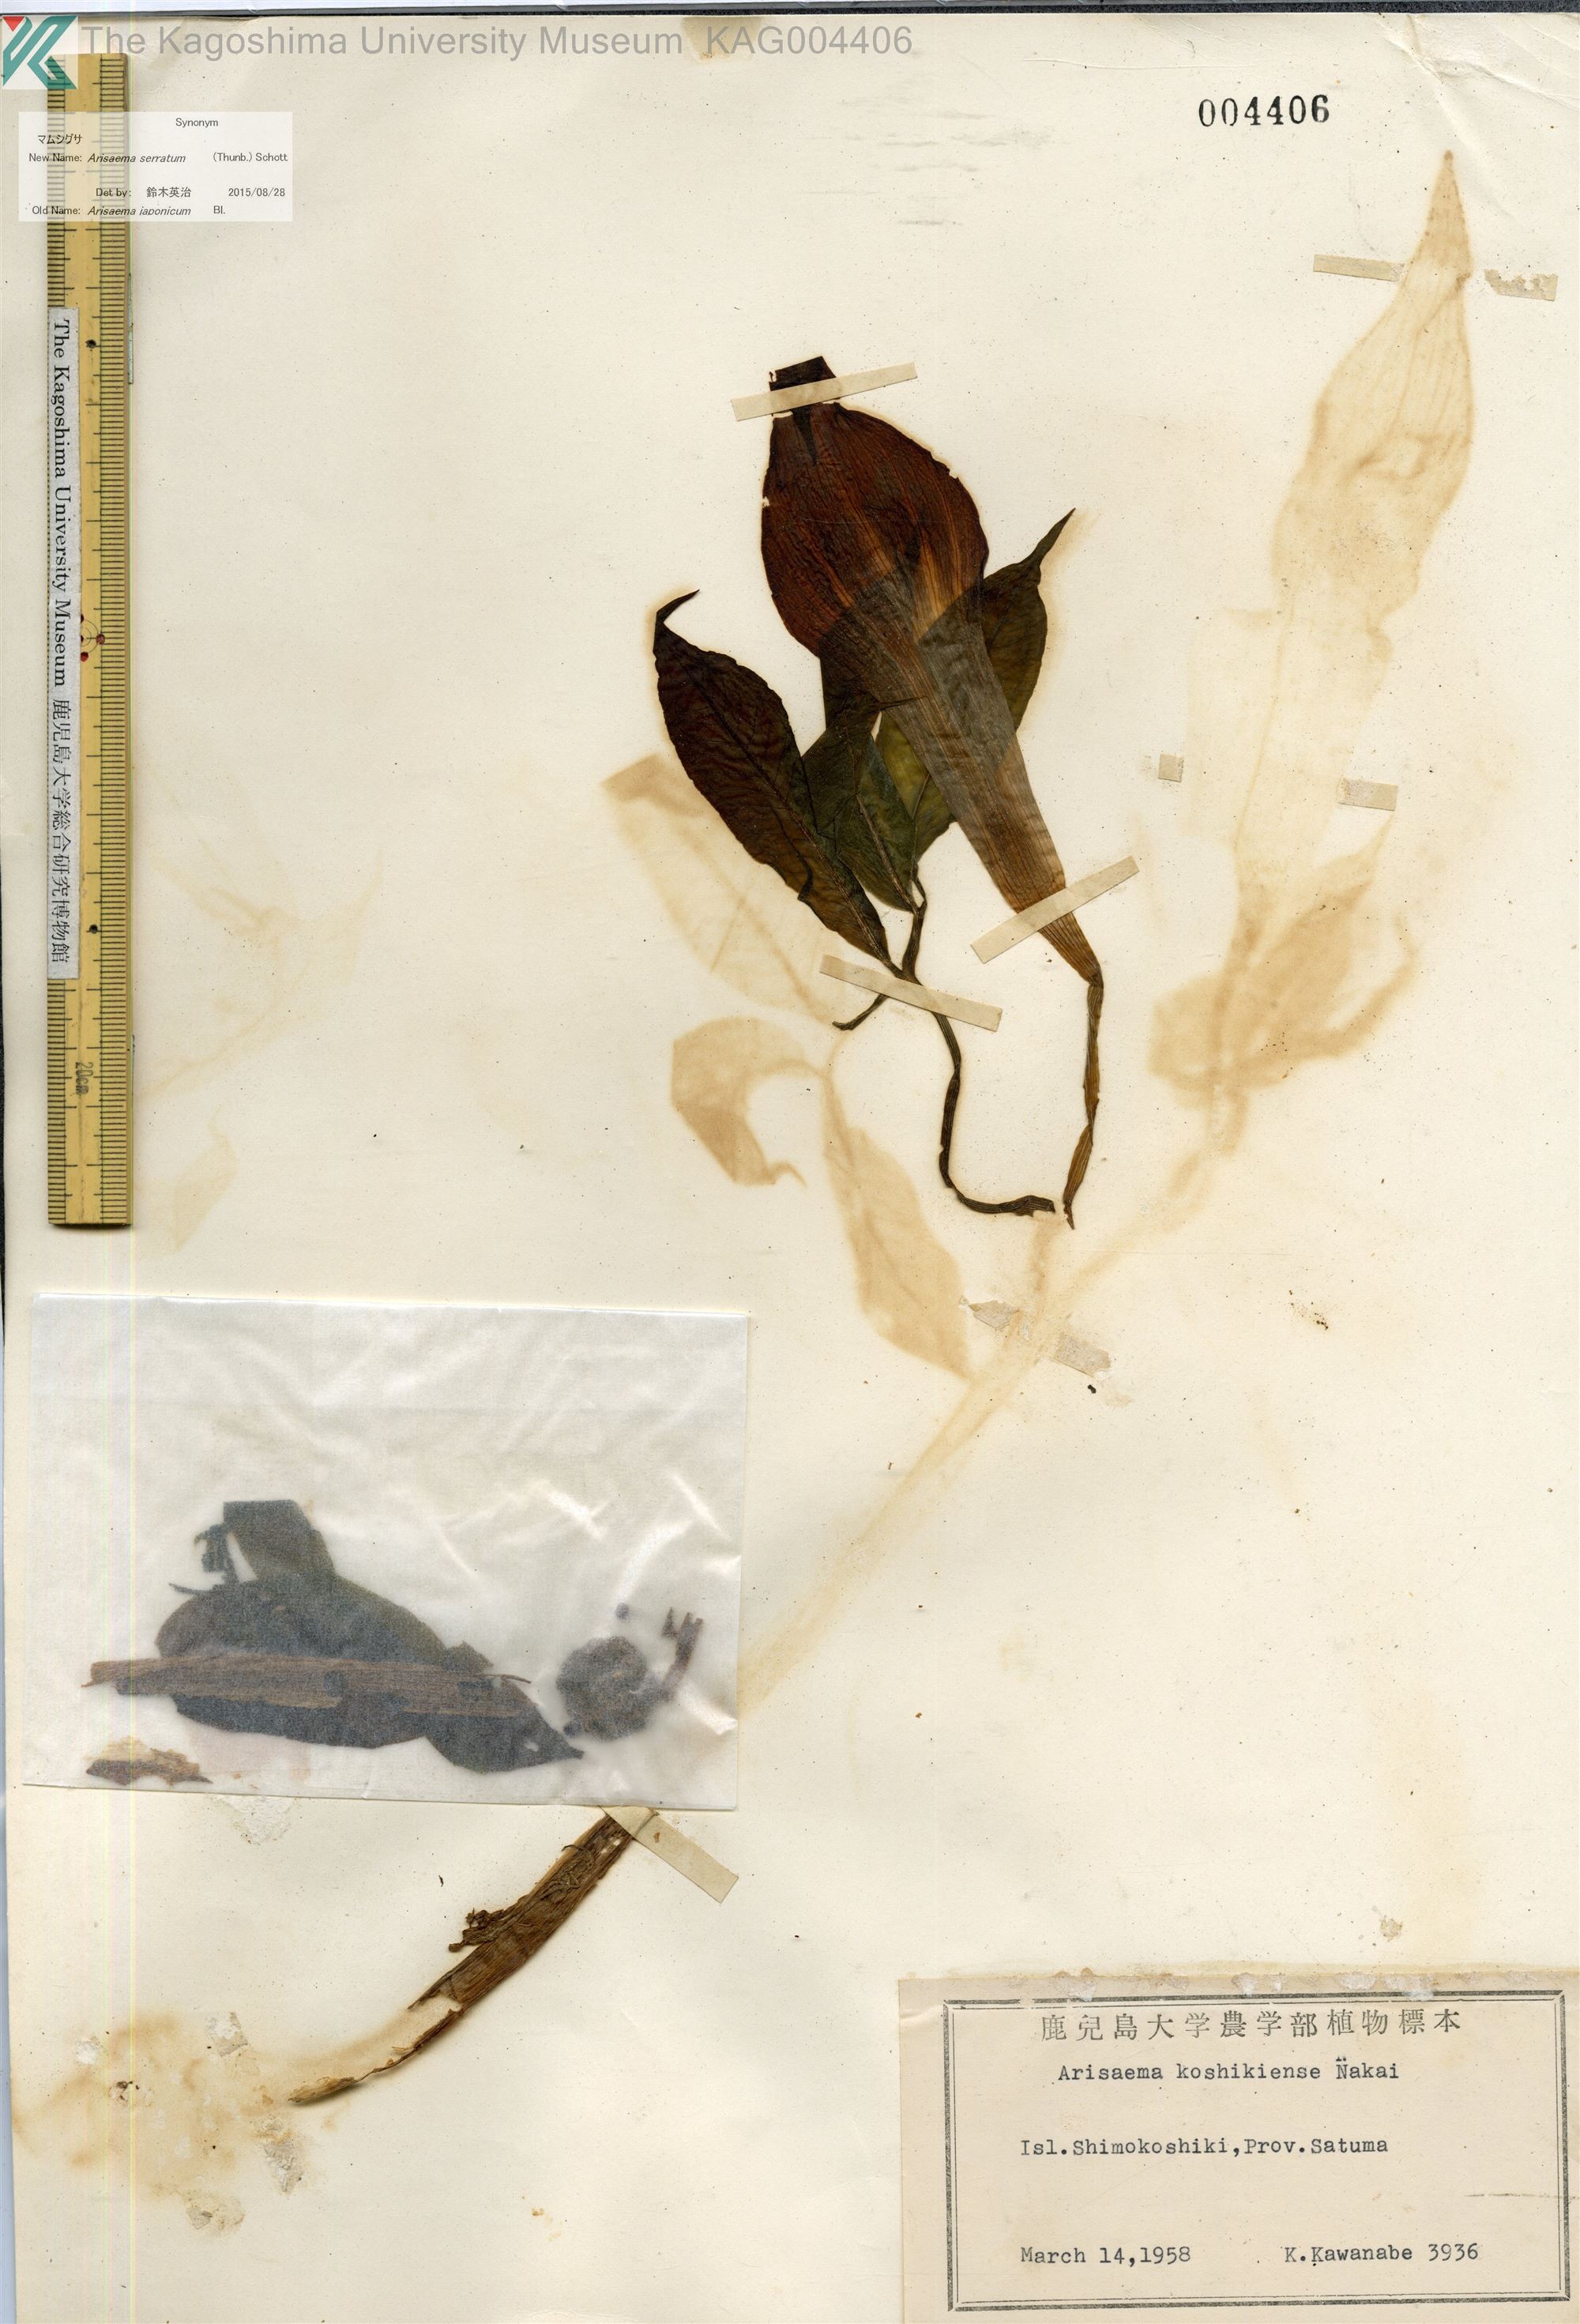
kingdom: Plantae
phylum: Tracheophyta
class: Liliopsida
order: Alismatales
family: Araceae
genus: Arisaema
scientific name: Arisaema serratum
